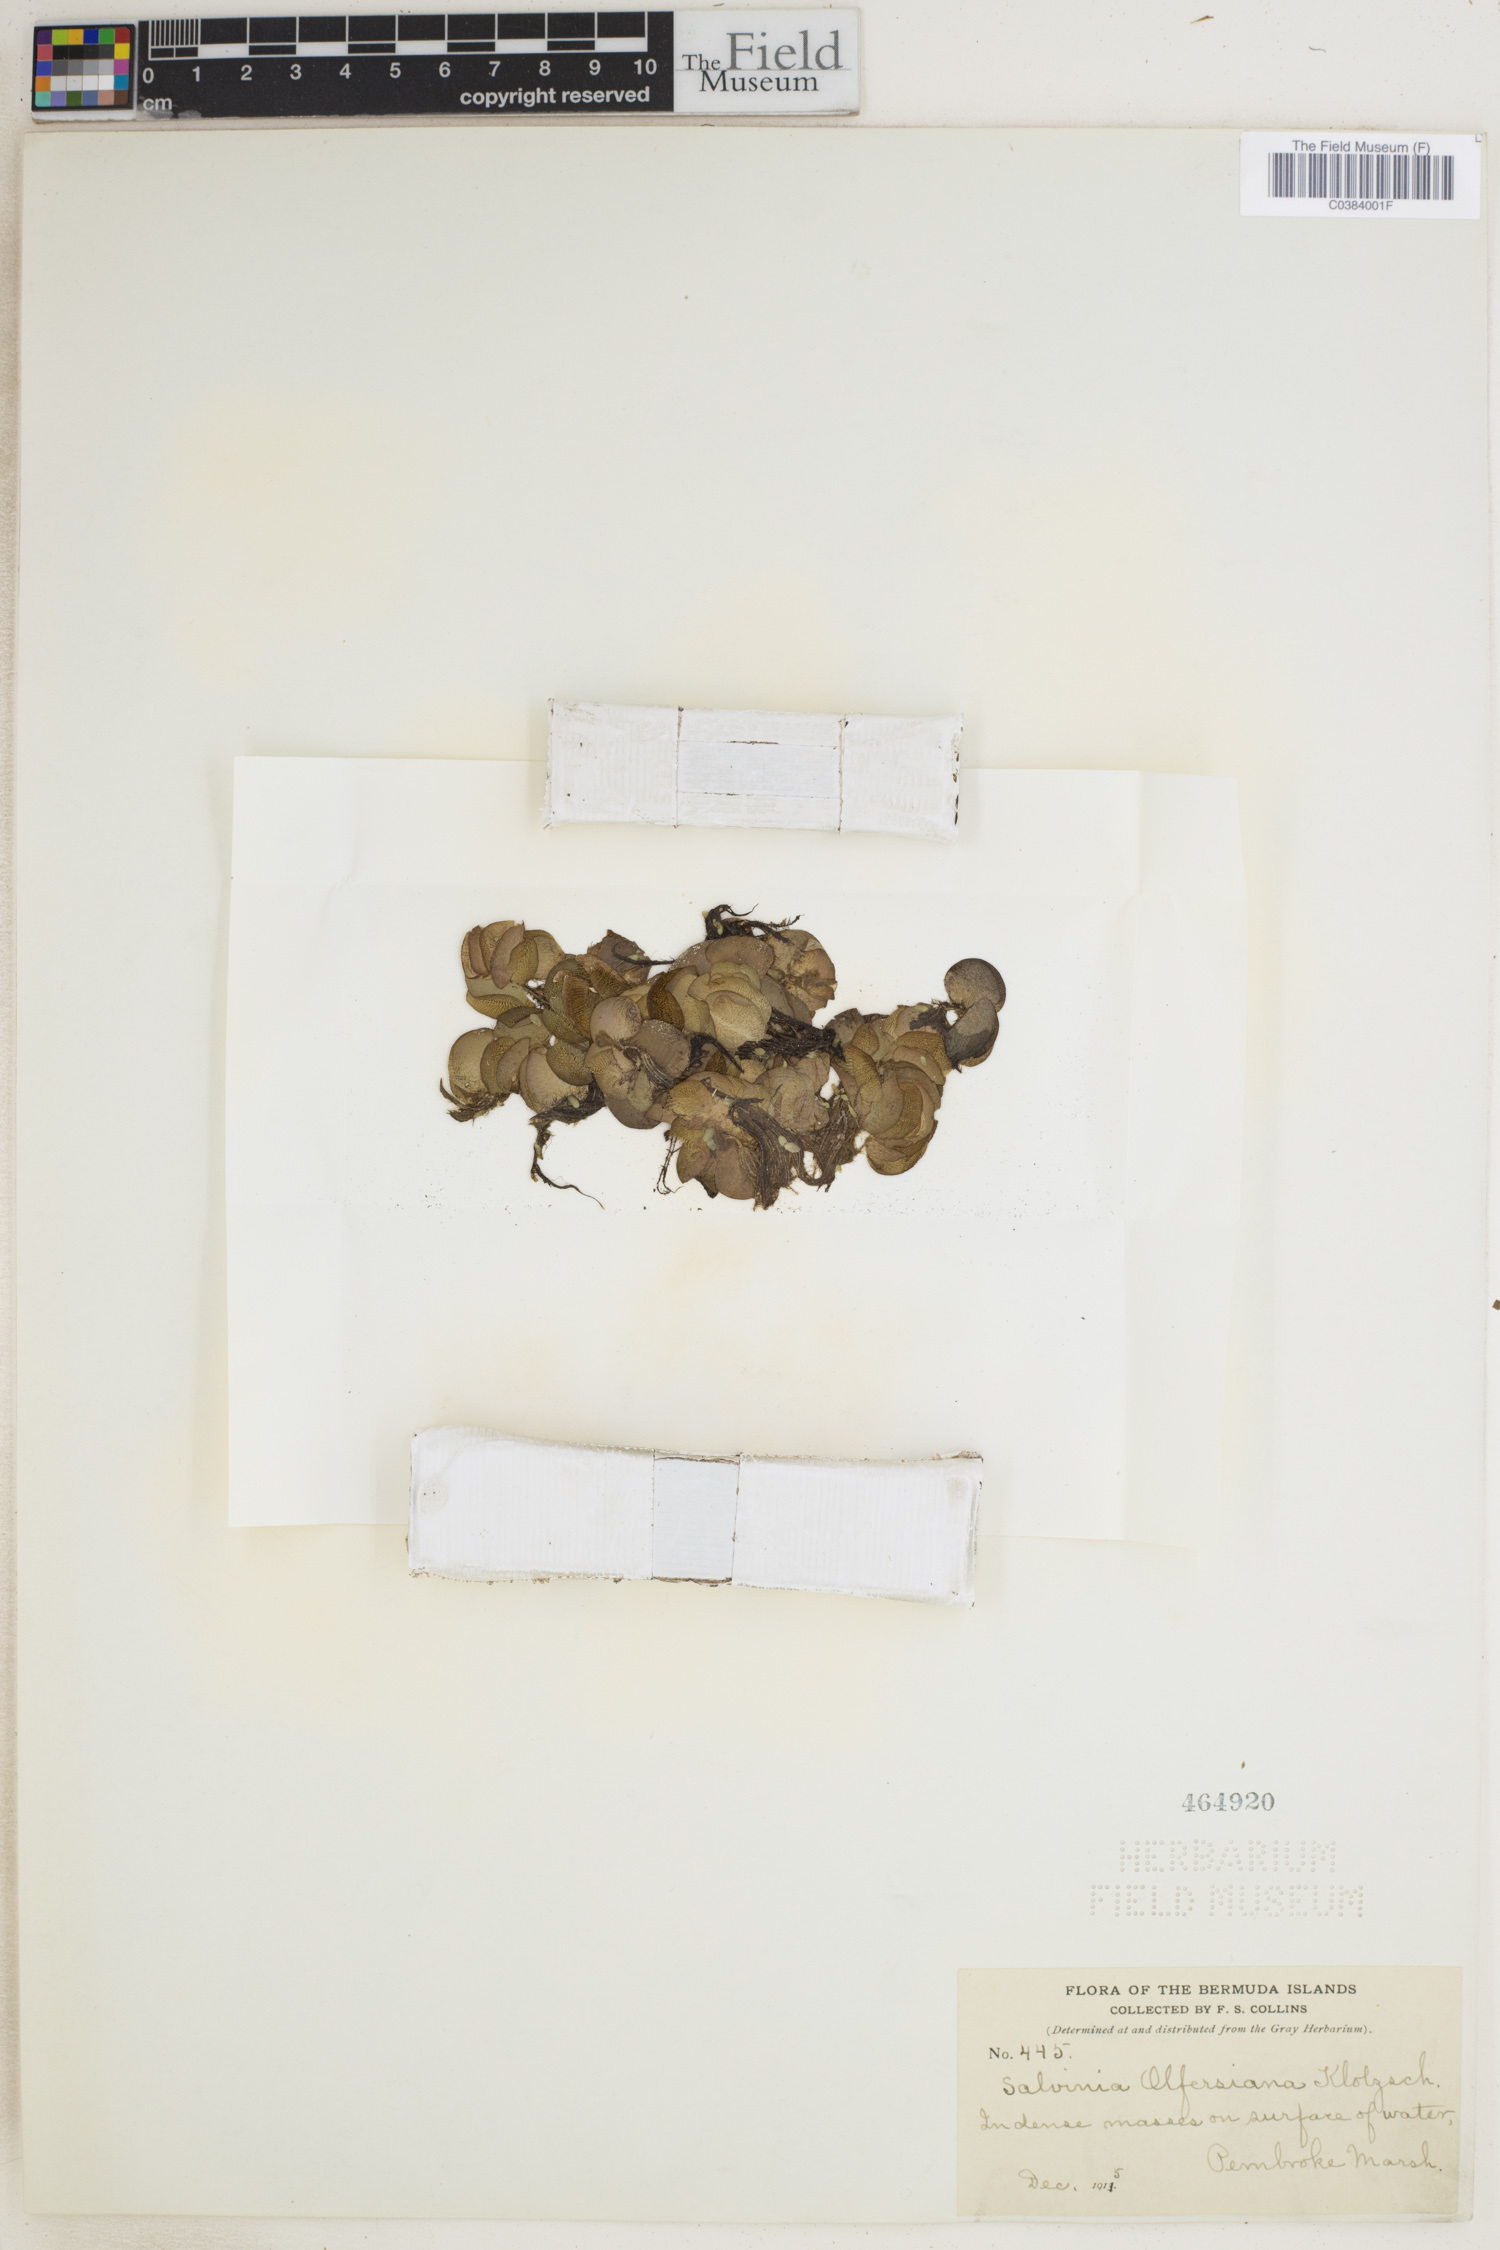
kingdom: Plantae
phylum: Tracheophyta
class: Polypodiopsida
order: Salviniales
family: Salviniaceae
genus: Salvinia
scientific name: Salvinia auriculata
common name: African payal
